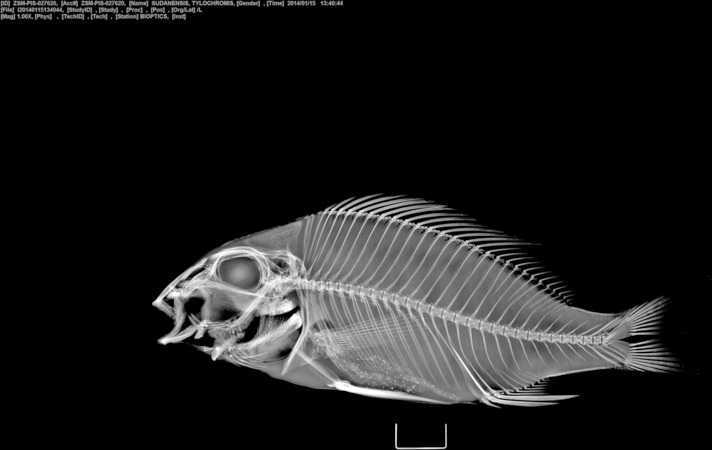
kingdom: Animalia
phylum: Chordata
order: Perciformes
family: Cichlidae
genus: Tylochromis
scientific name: Tylochromis sudanensis
